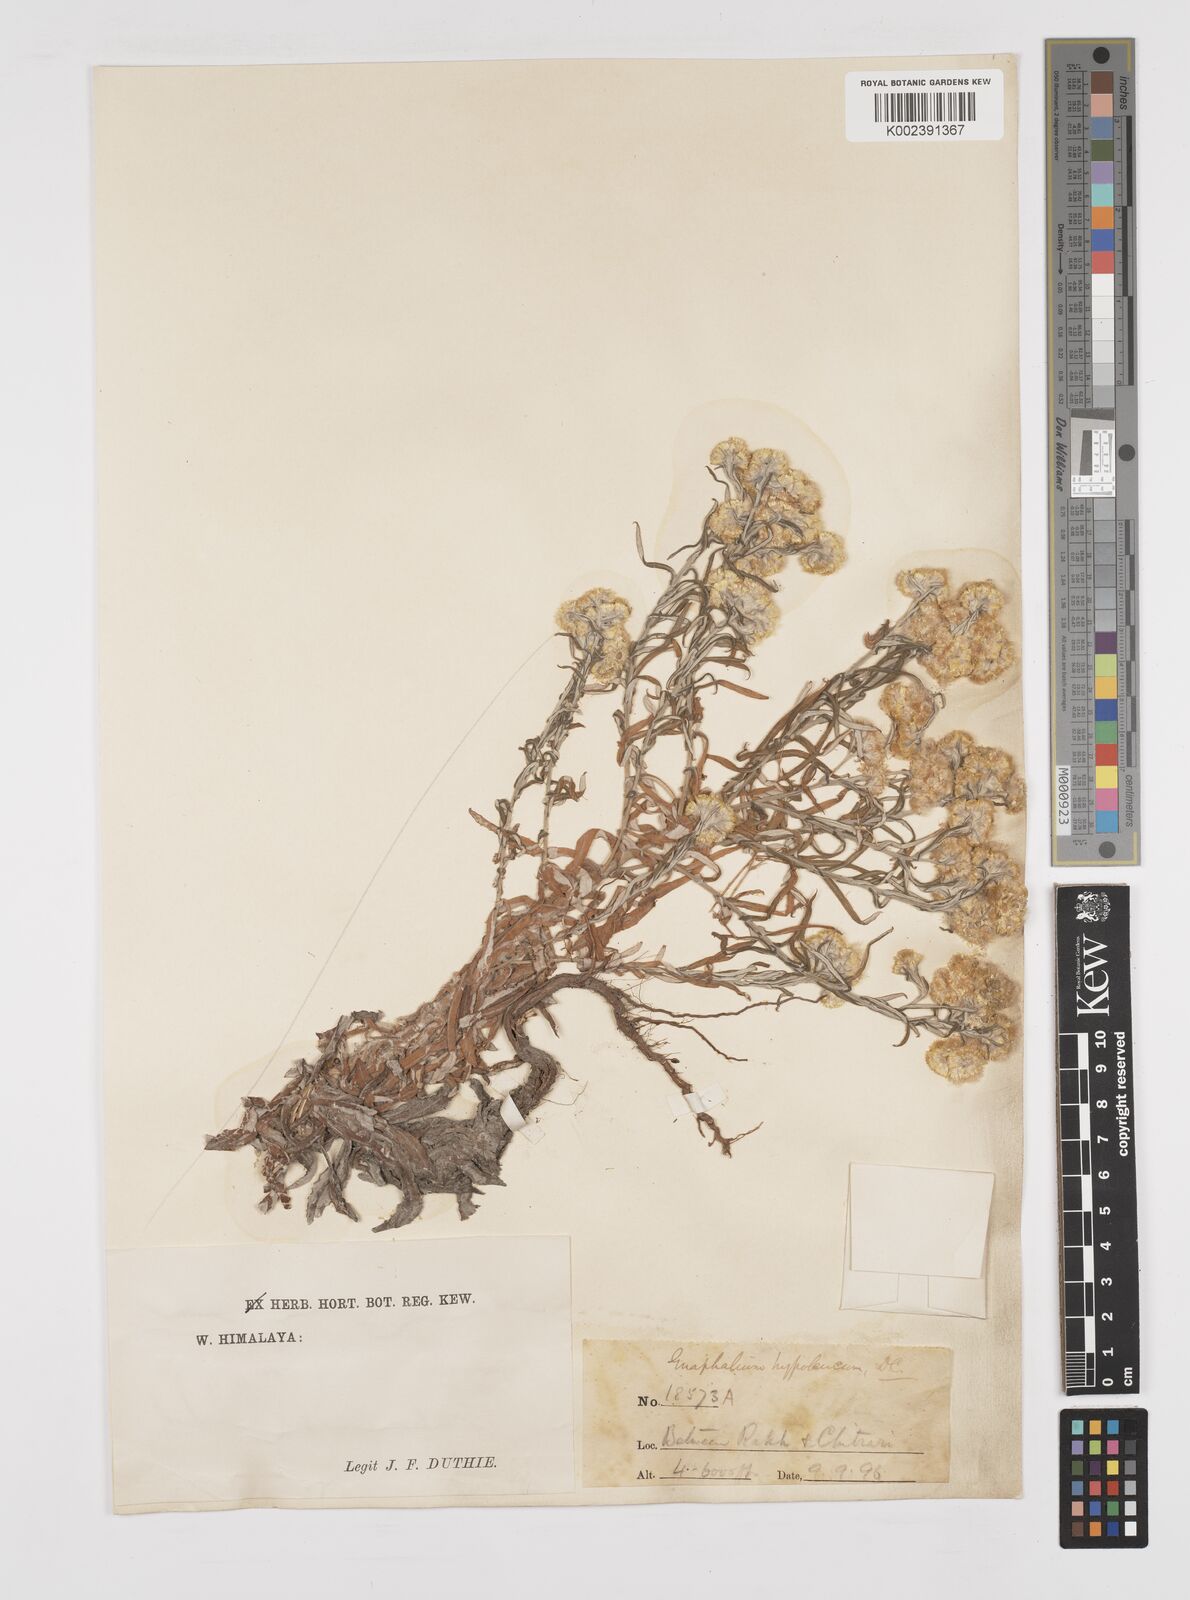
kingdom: Plantae
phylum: Tracheophyta
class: Magnoliopsida
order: Asterales
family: Asteraceae
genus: Pseudognaphalium
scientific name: Pseudognaphalium hypoleucum
